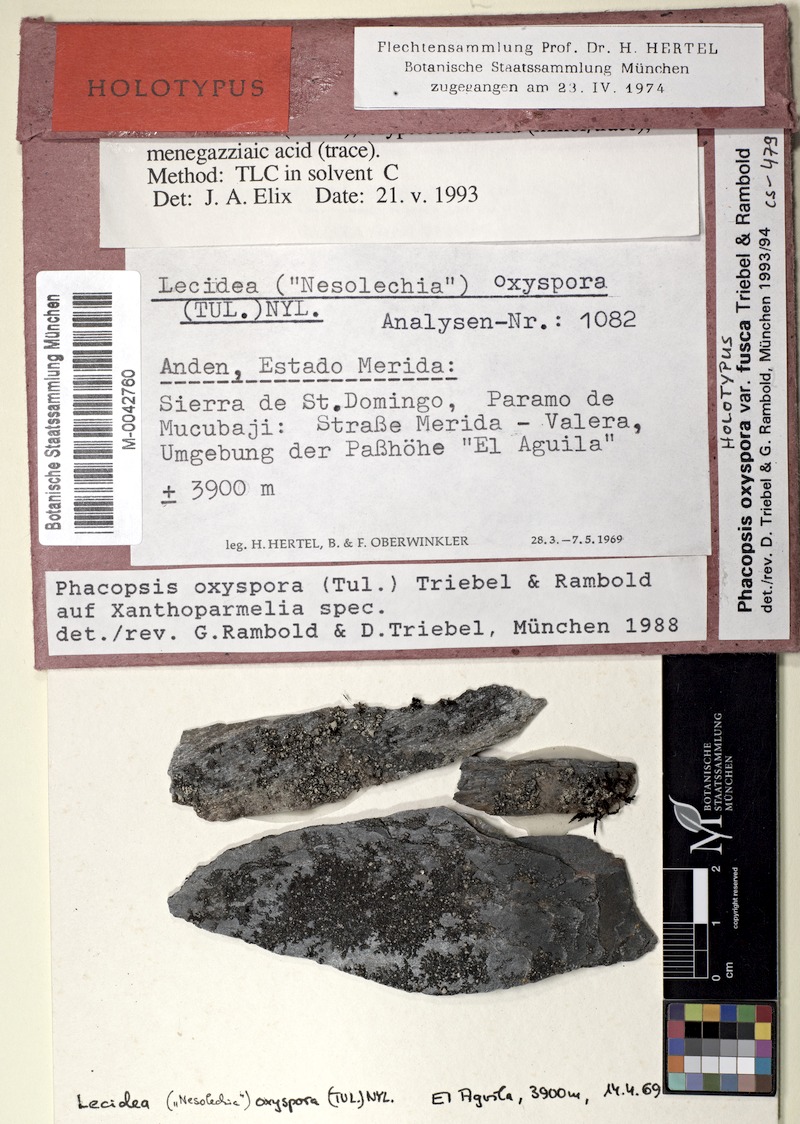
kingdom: Fungi
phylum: Ascomycota
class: Lecanoromycetes
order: Lecanorales
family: Parmeliaceae
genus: Punctelia
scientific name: Punctelia oxyspora
